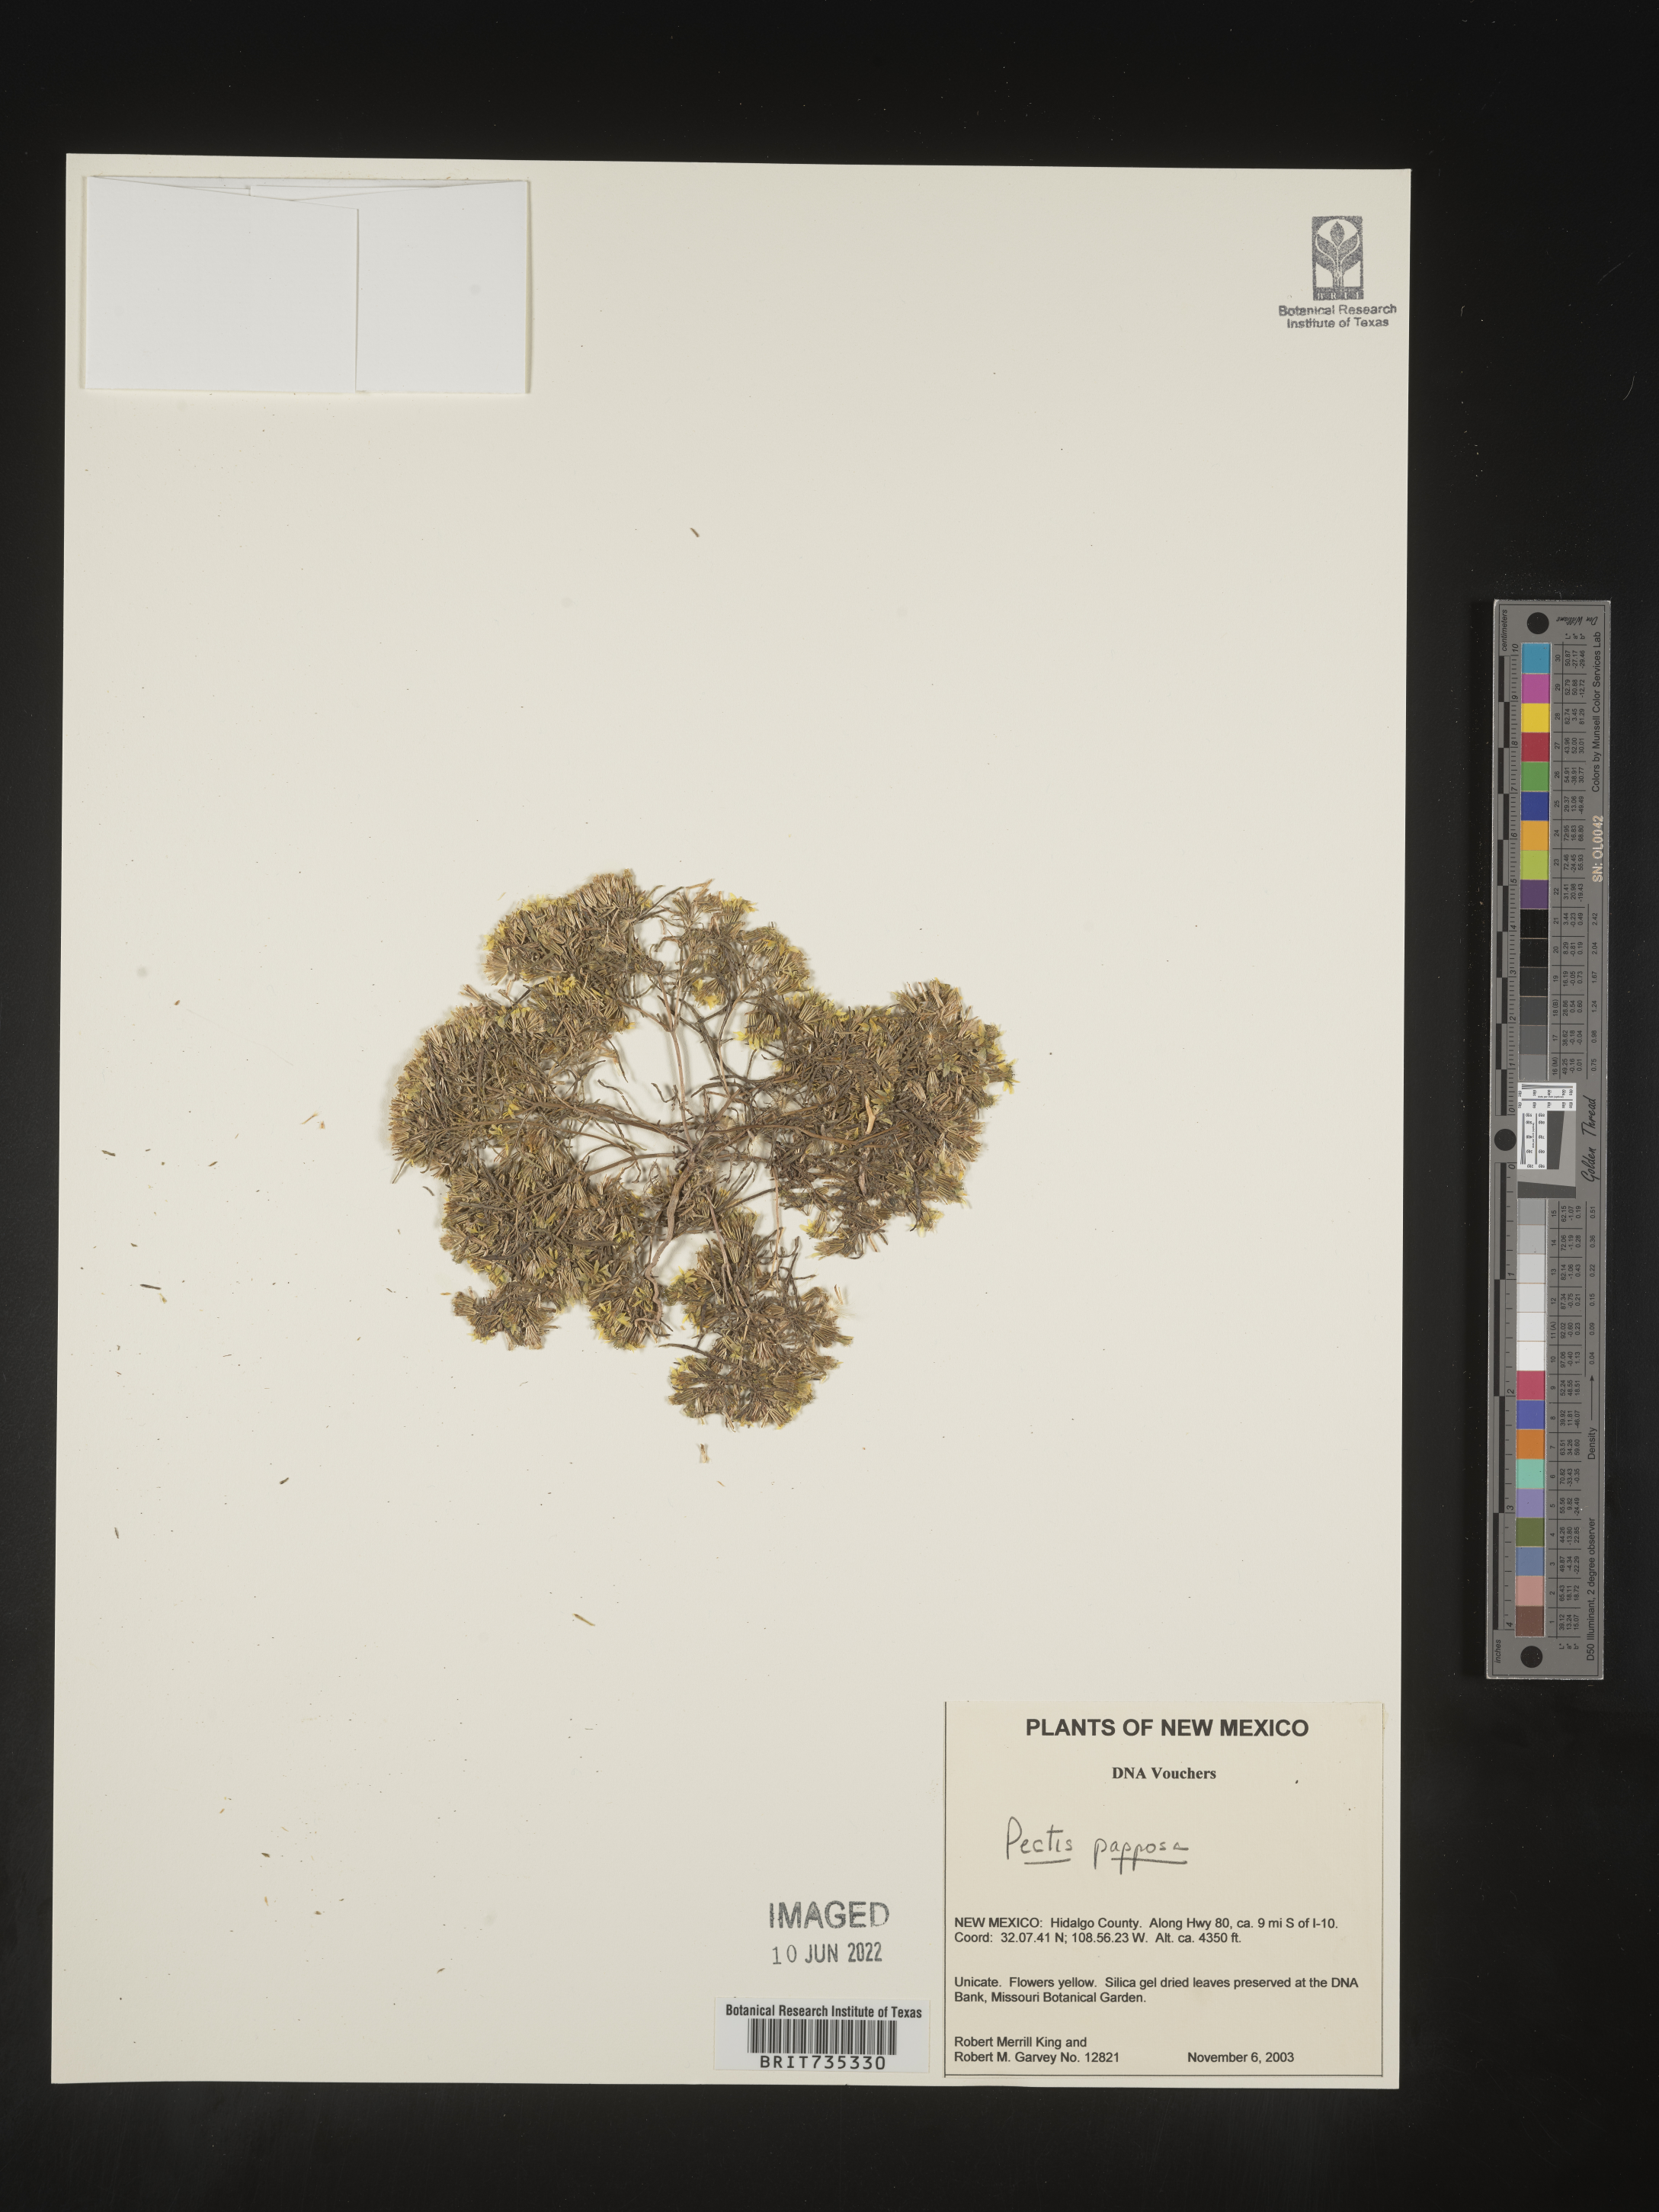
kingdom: Plantae
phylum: Tracheophyta
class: Magnoliopsida
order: Asterales
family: Asteraceae
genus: Pectis
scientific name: Pectis papposa
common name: Many-bristle chinchweed
